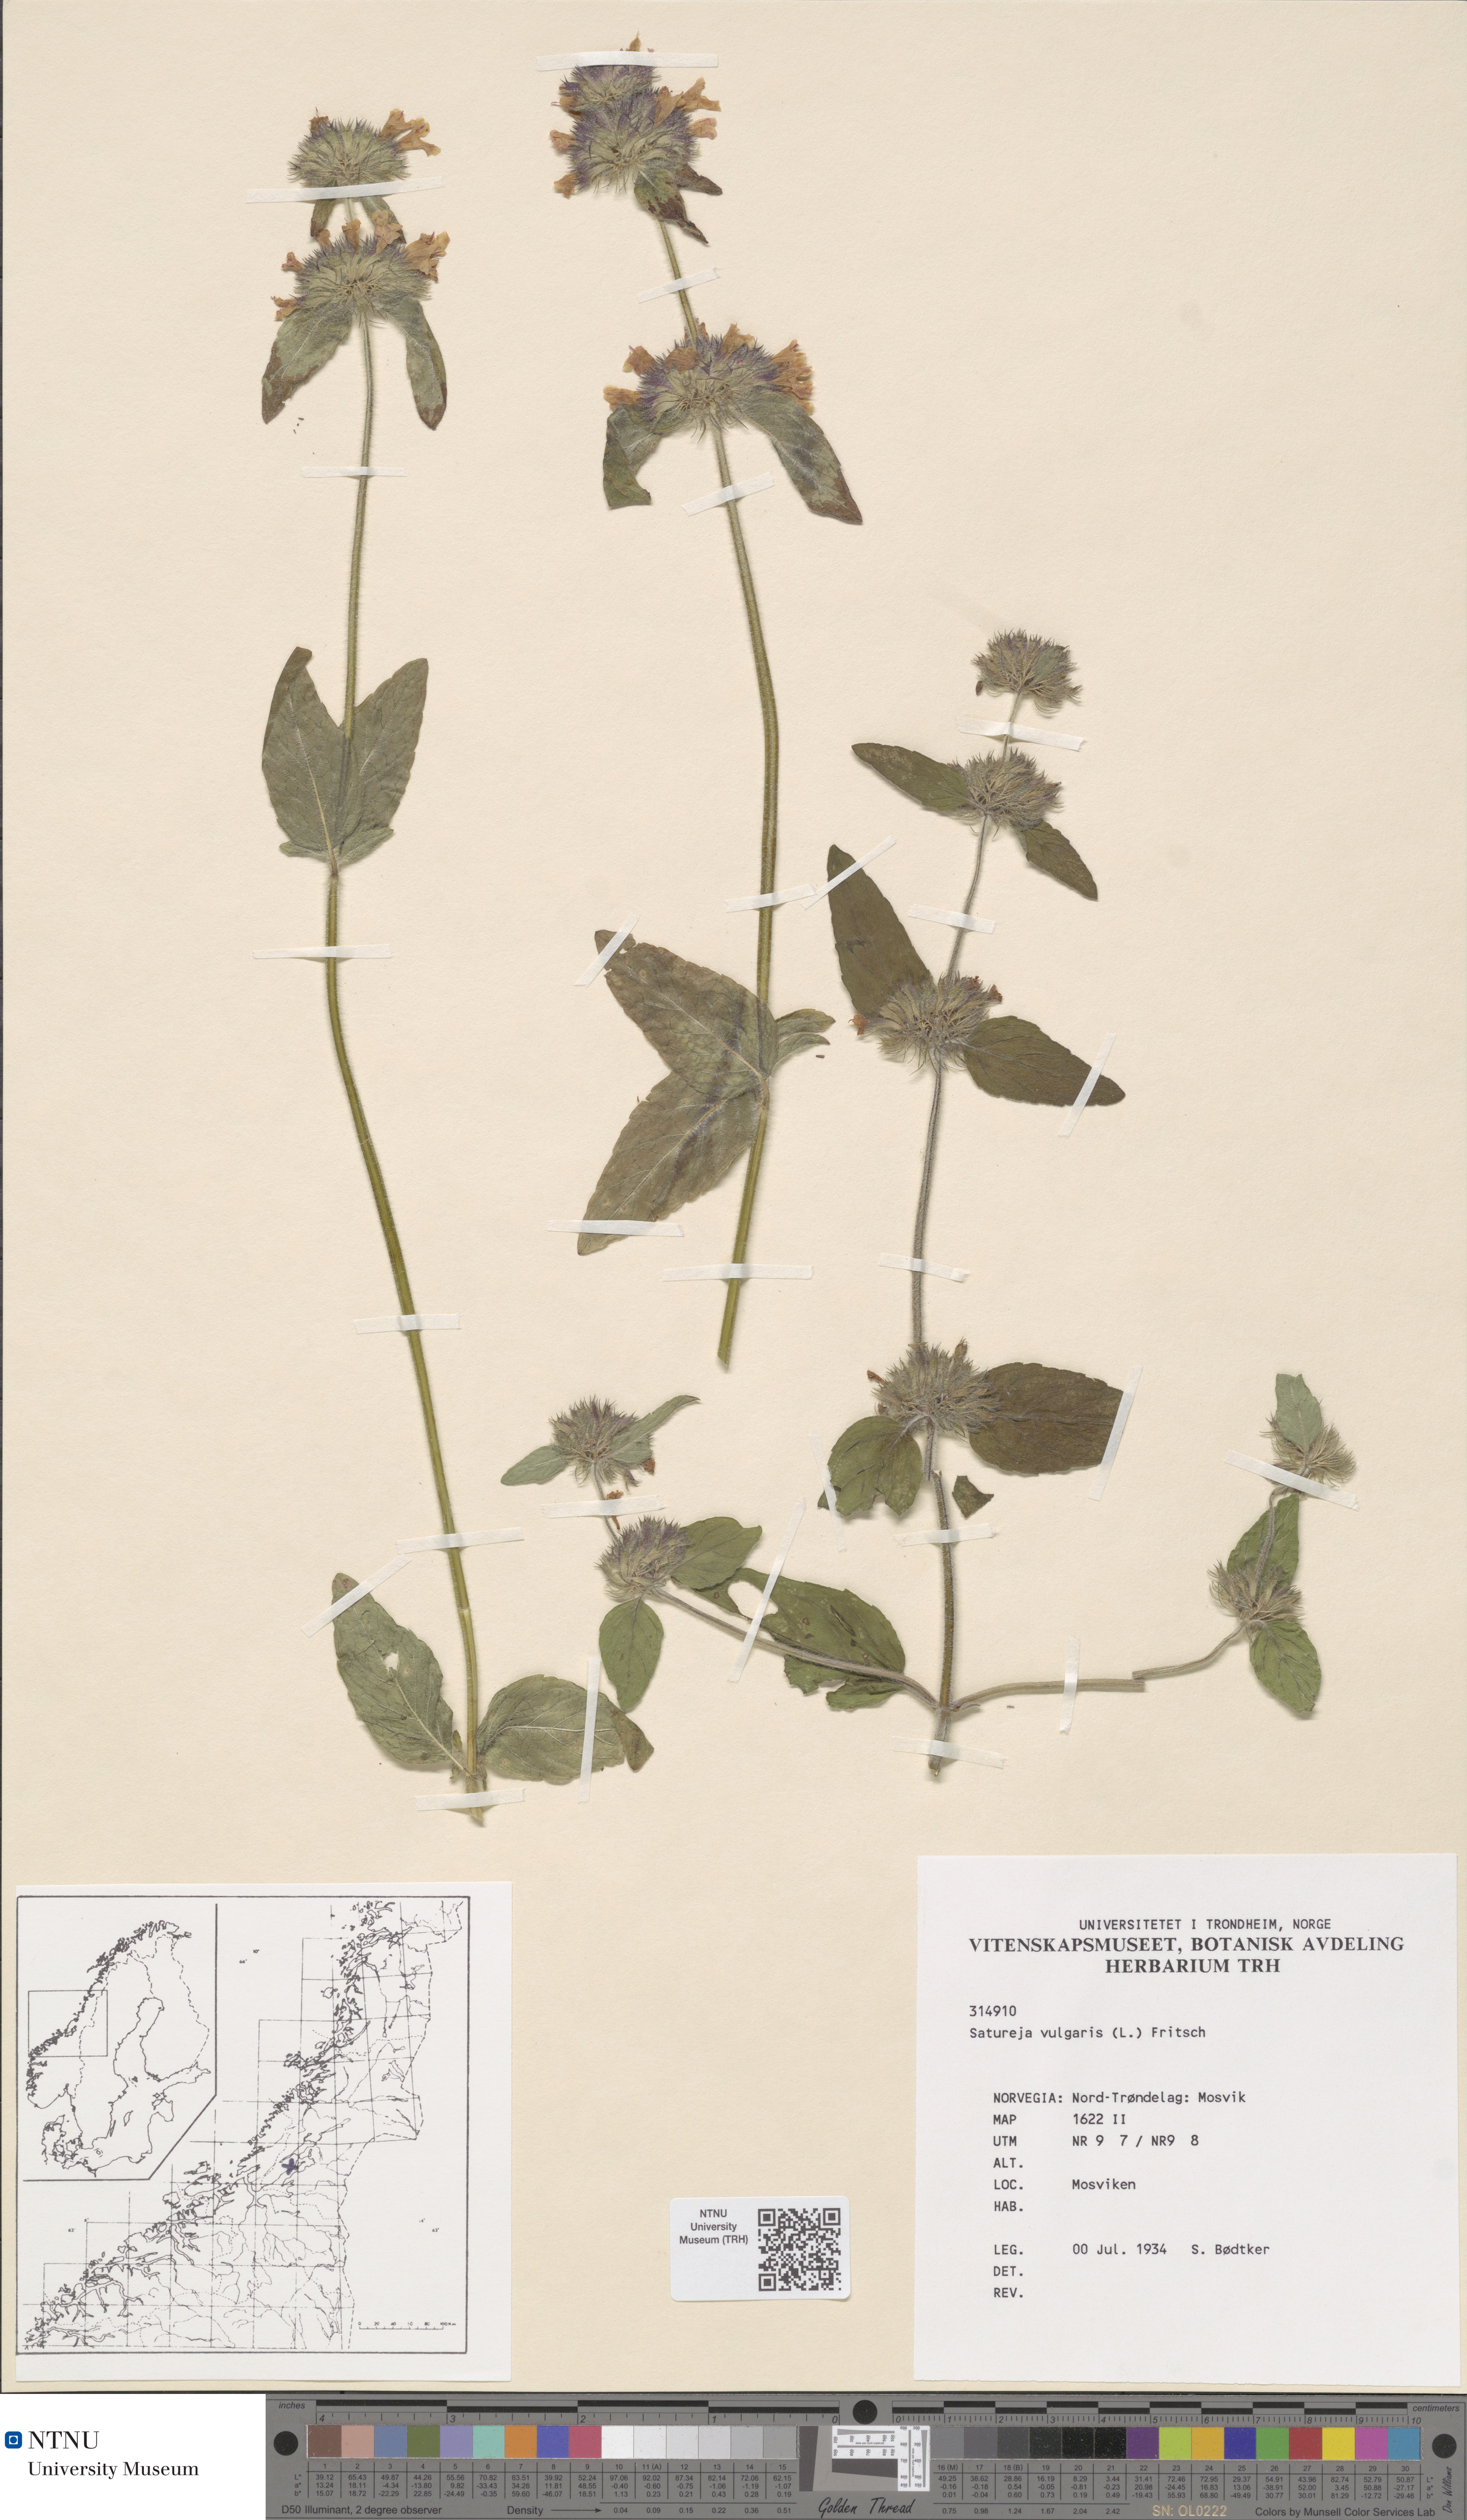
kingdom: Plantae
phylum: Tracheophyta
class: Magnoliopsida
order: Lamiales
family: Lamiaceae
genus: Clinopodium
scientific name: Clinopodium vulgare
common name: Wild basil
